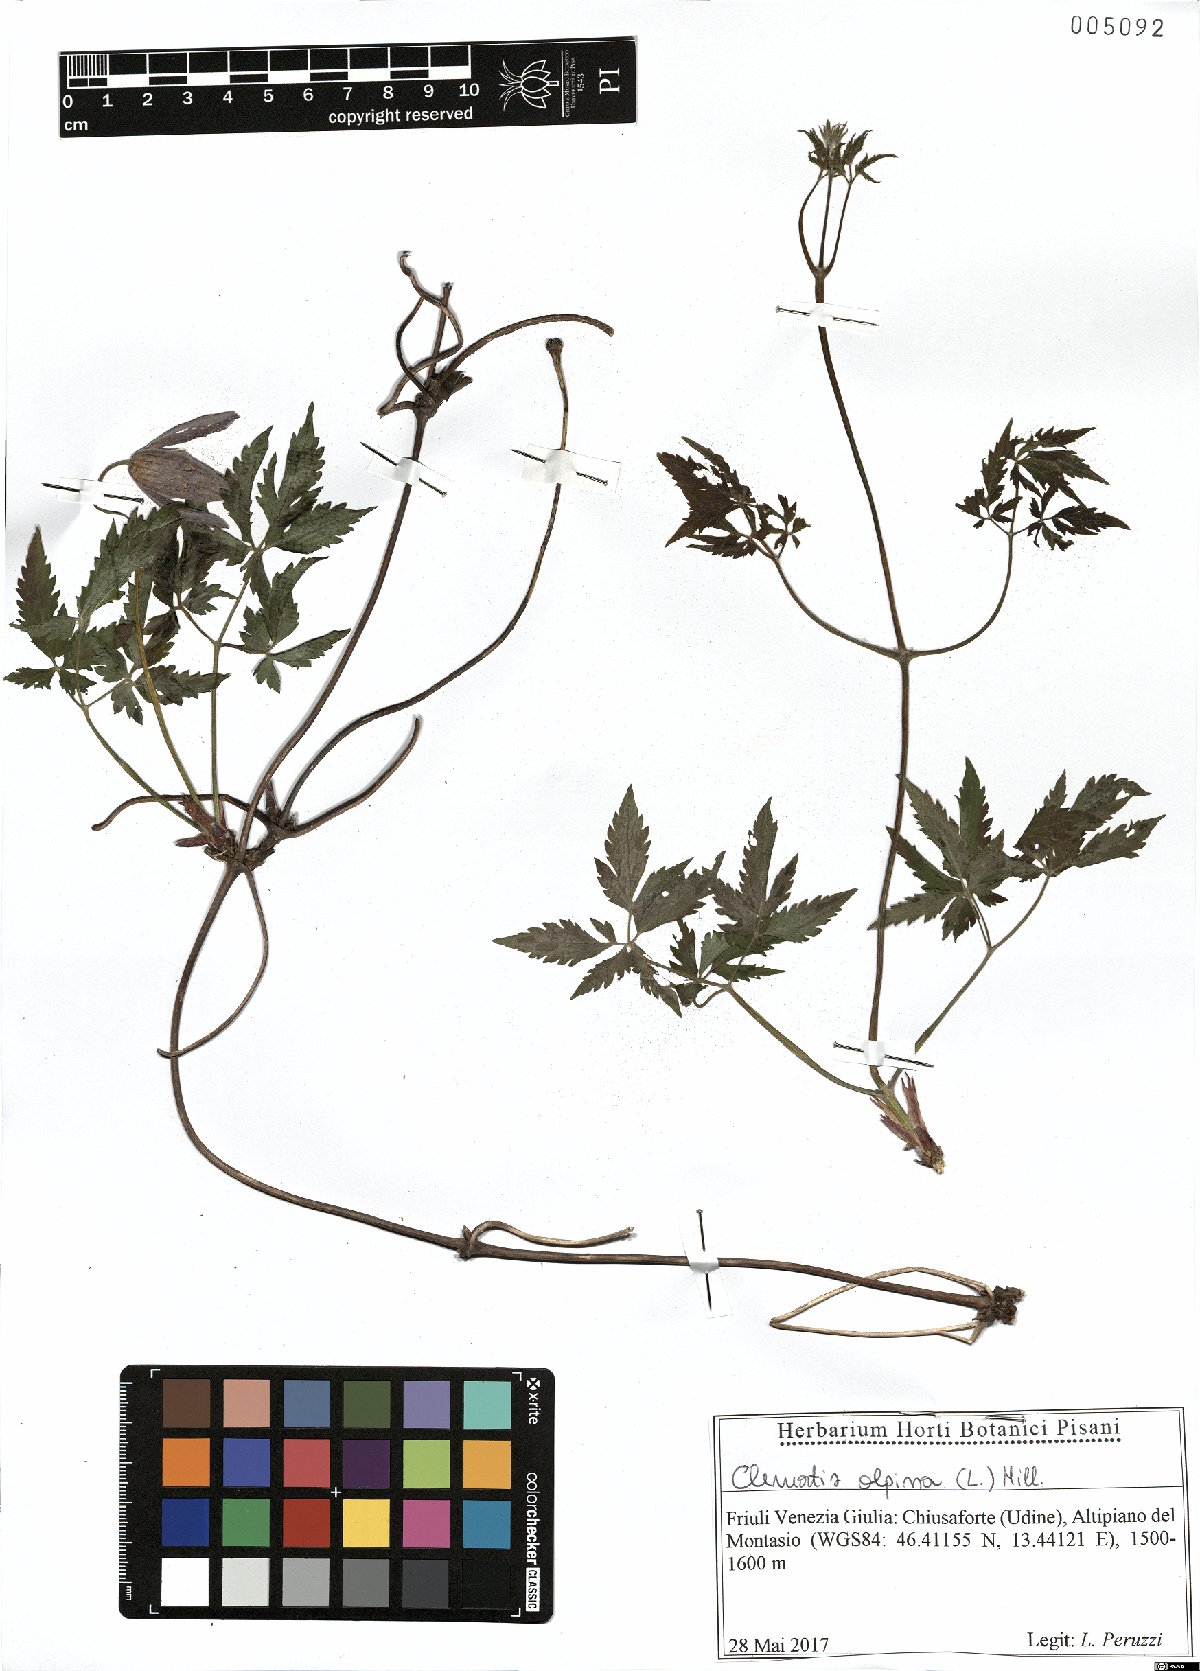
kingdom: Plantae
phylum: Tracheophyta
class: Magnoliopsida
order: Ranunculales
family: Ranunculaceae
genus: Clematis
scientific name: Clematis alpina
